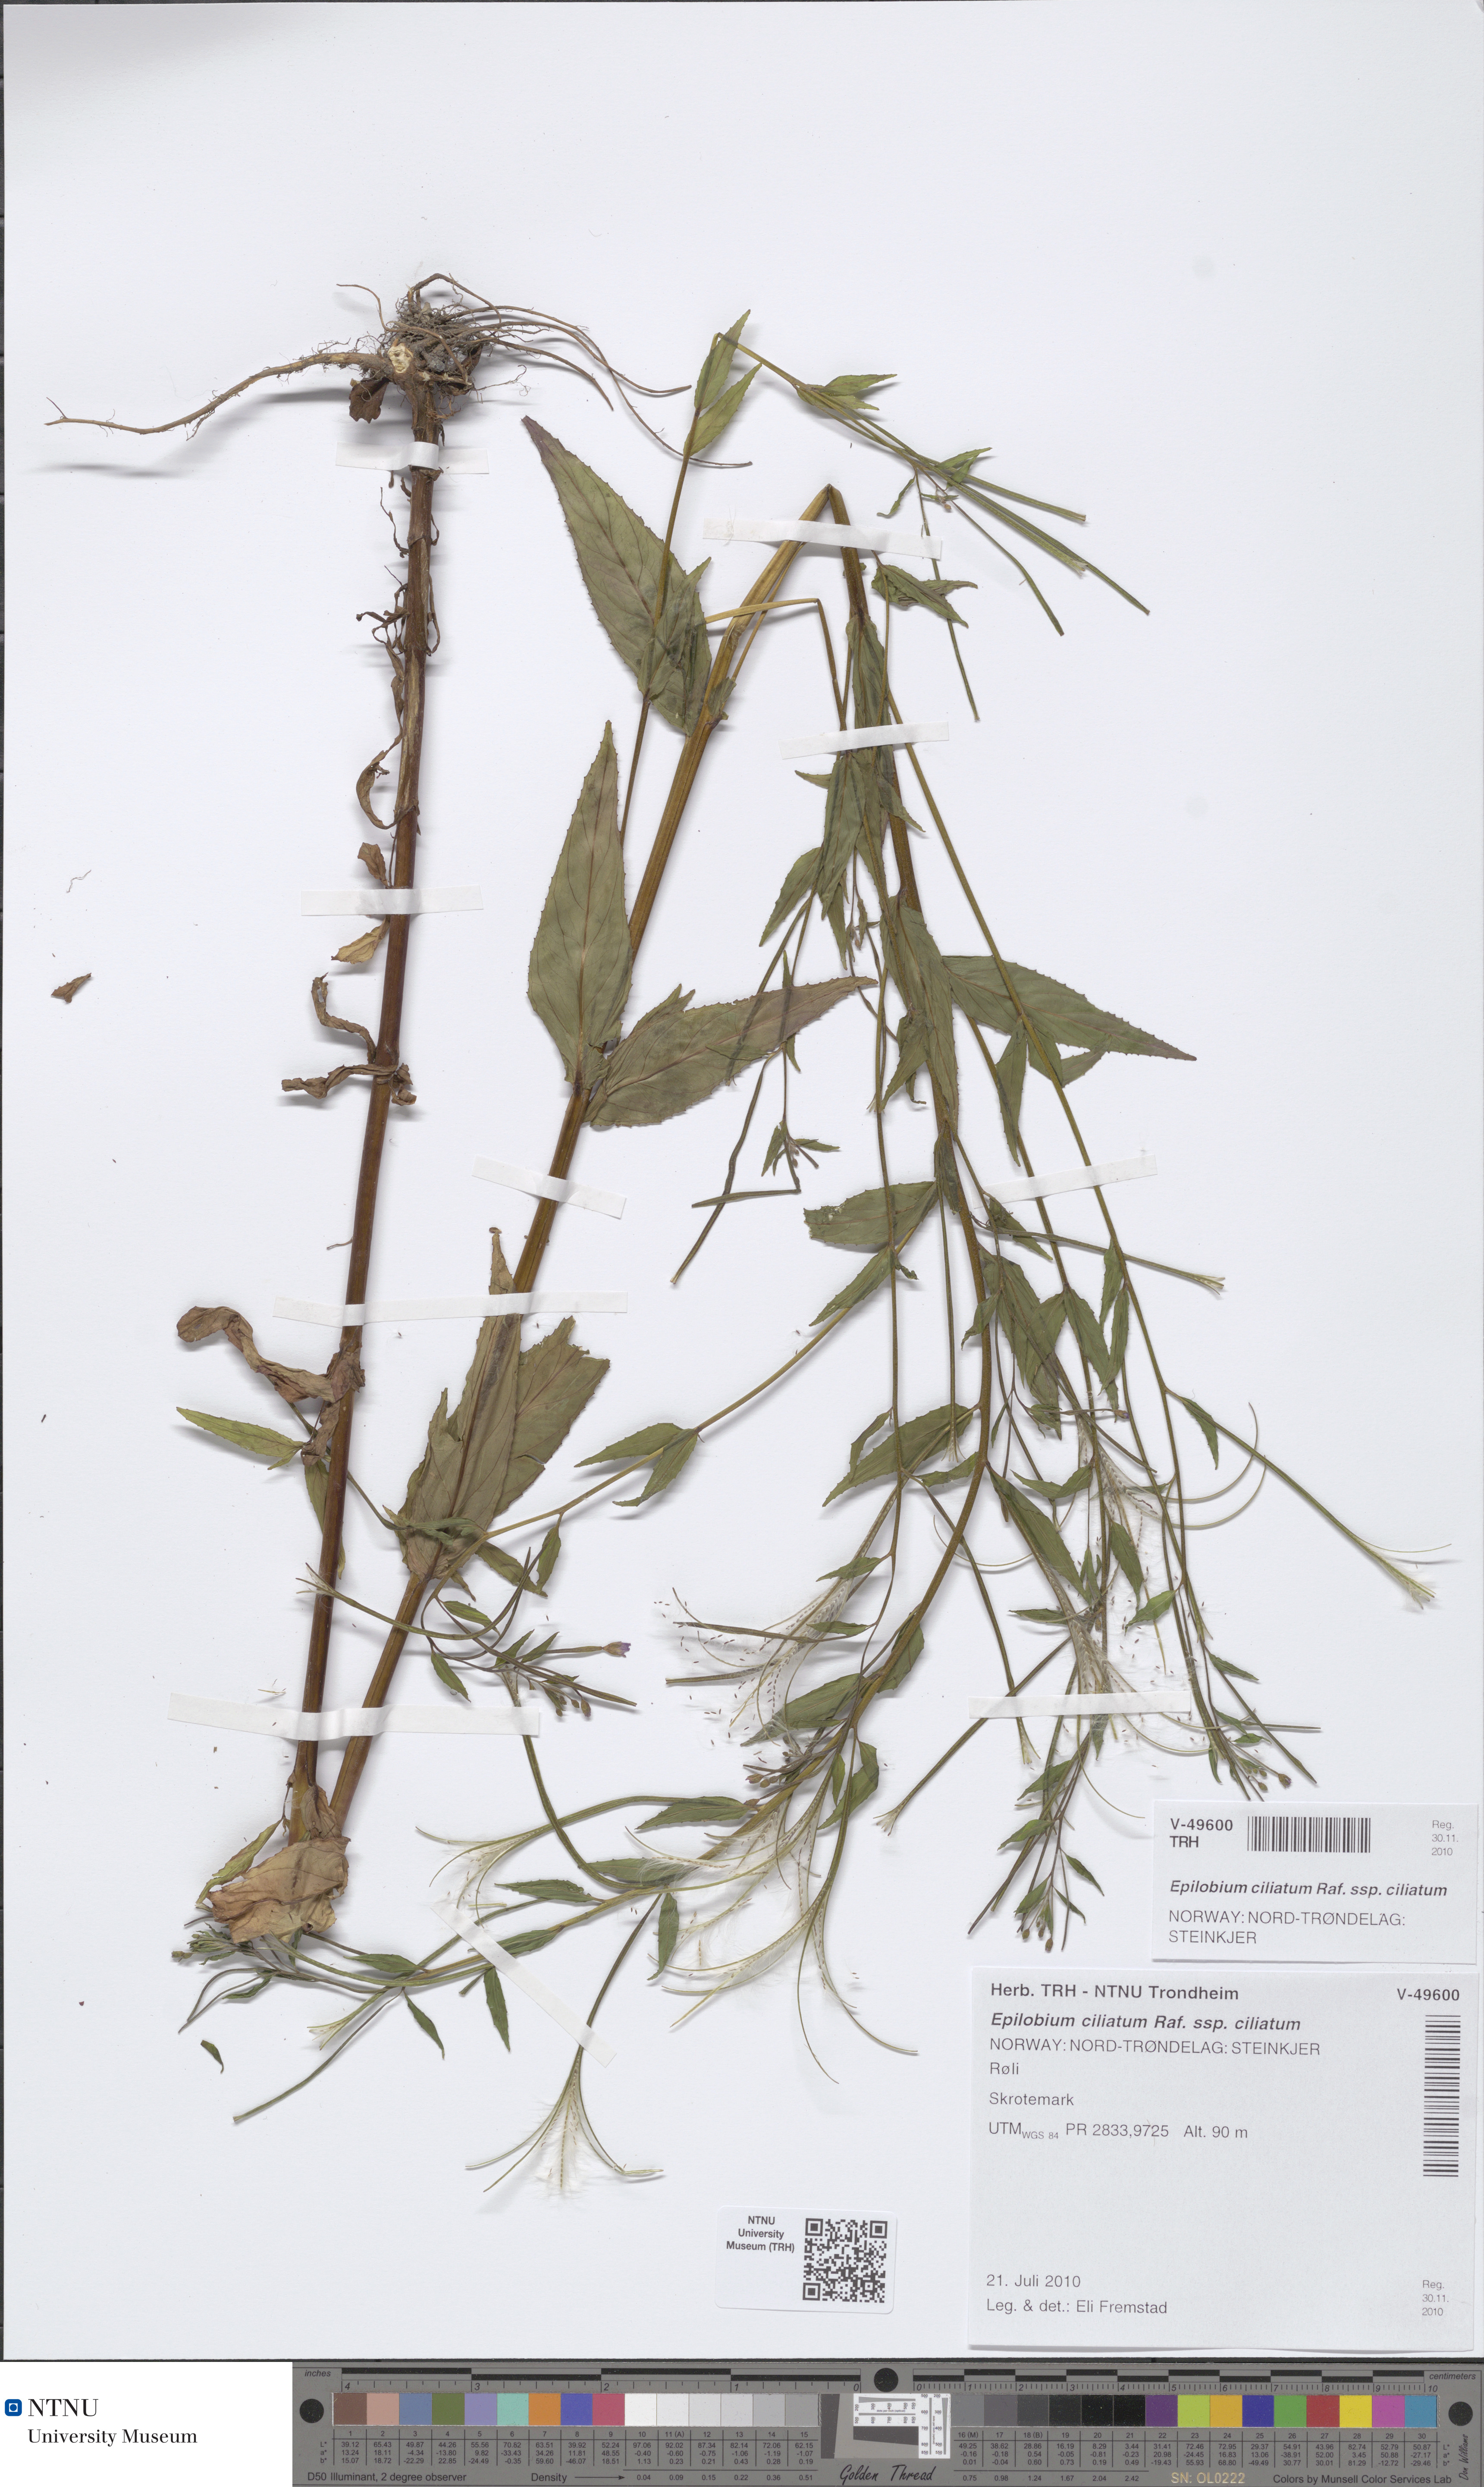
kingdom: Plantae
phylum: Tracheophyta
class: Magnoliopsida
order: Myrtales
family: Onagraceae
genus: Epilobium
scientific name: Epilobium ciliatum
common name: American willowherb
